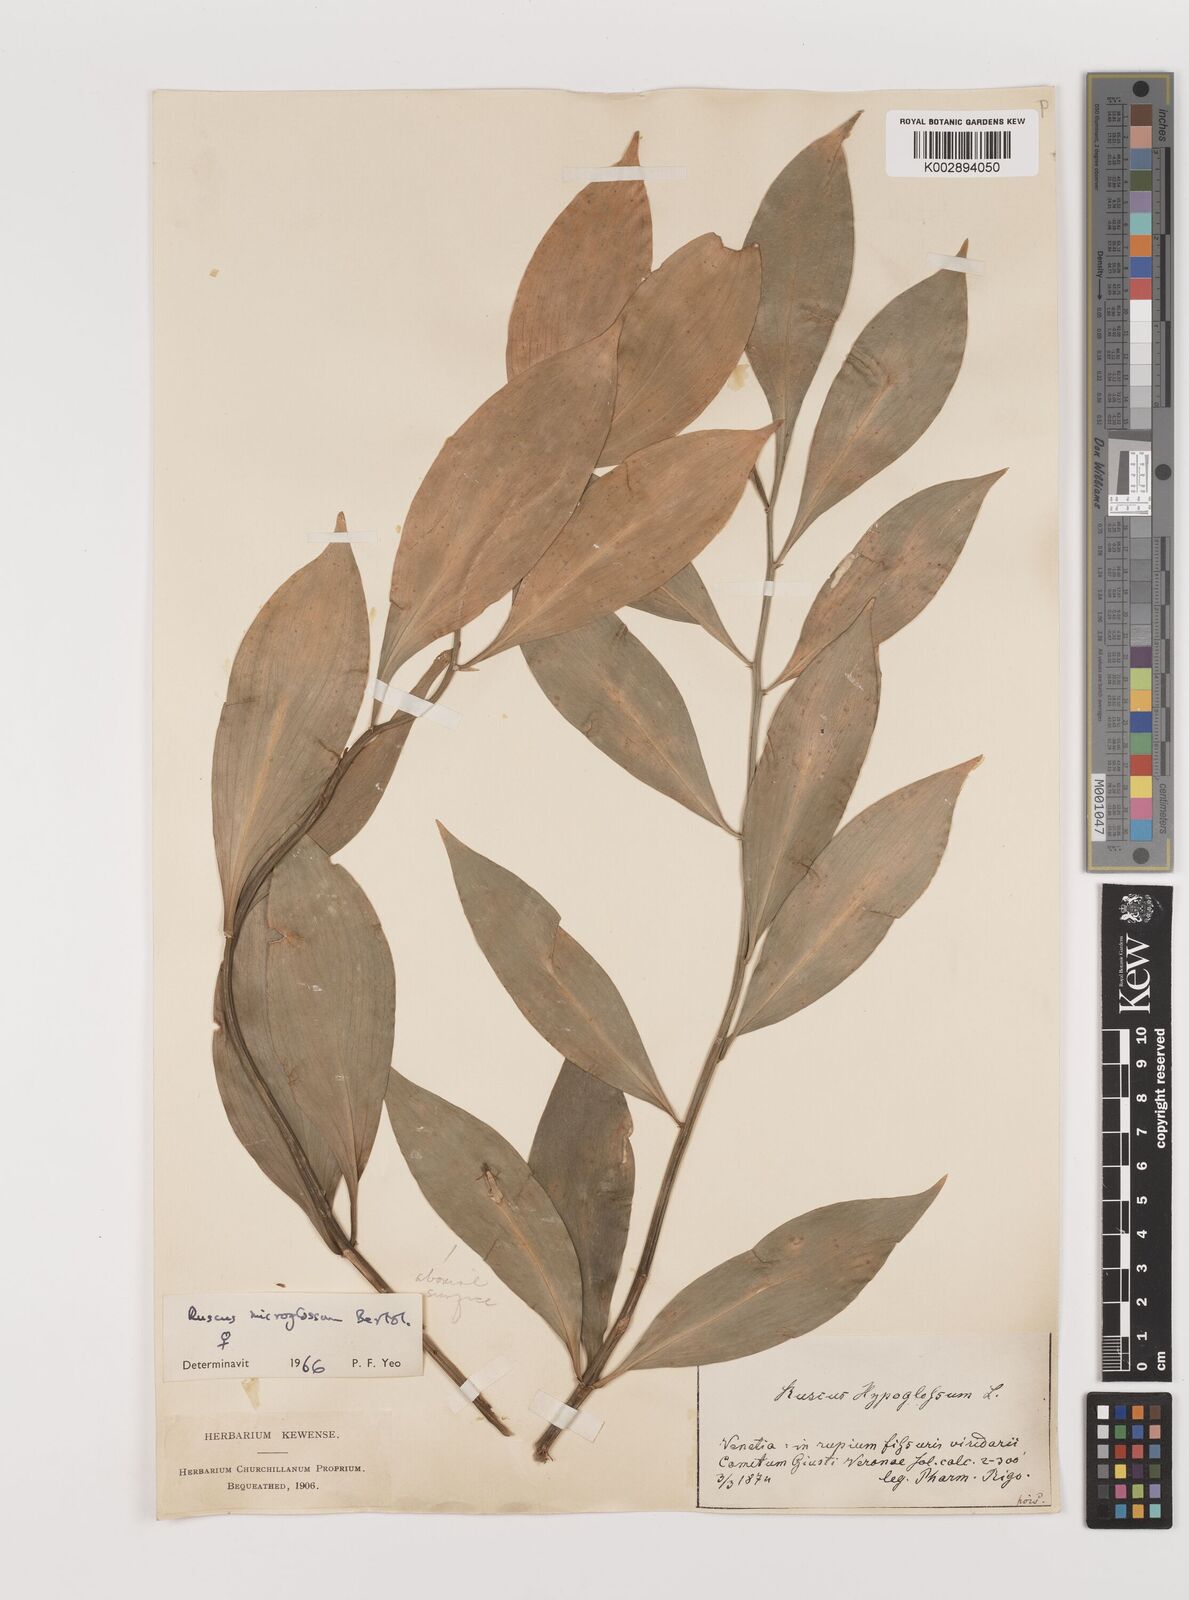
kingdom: Plantae
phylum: Tracheophyta
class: Liliopsida
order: Asparagales
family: Asparagaceae
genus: Ruscus
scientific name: Ruscus microglossus
